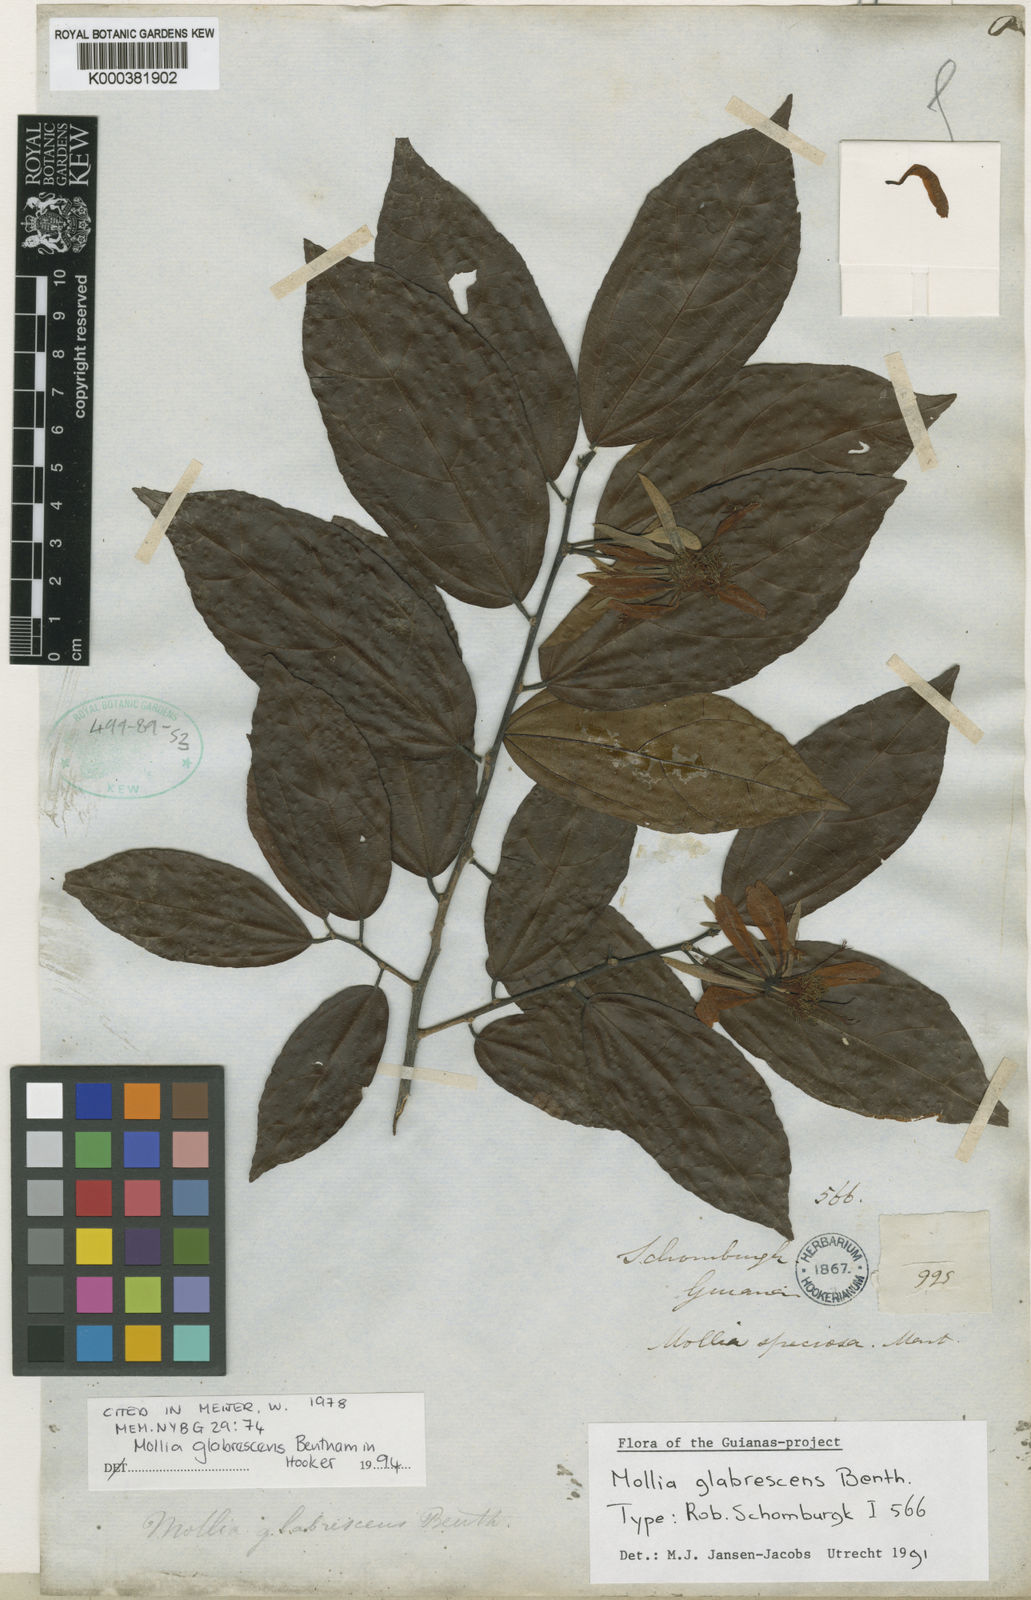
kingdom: Plantae
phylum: Tracheophyta
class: Magnoliopsida
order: Malvales
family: Malvaceae
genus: Mollia
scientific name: Mollia glabrescens
